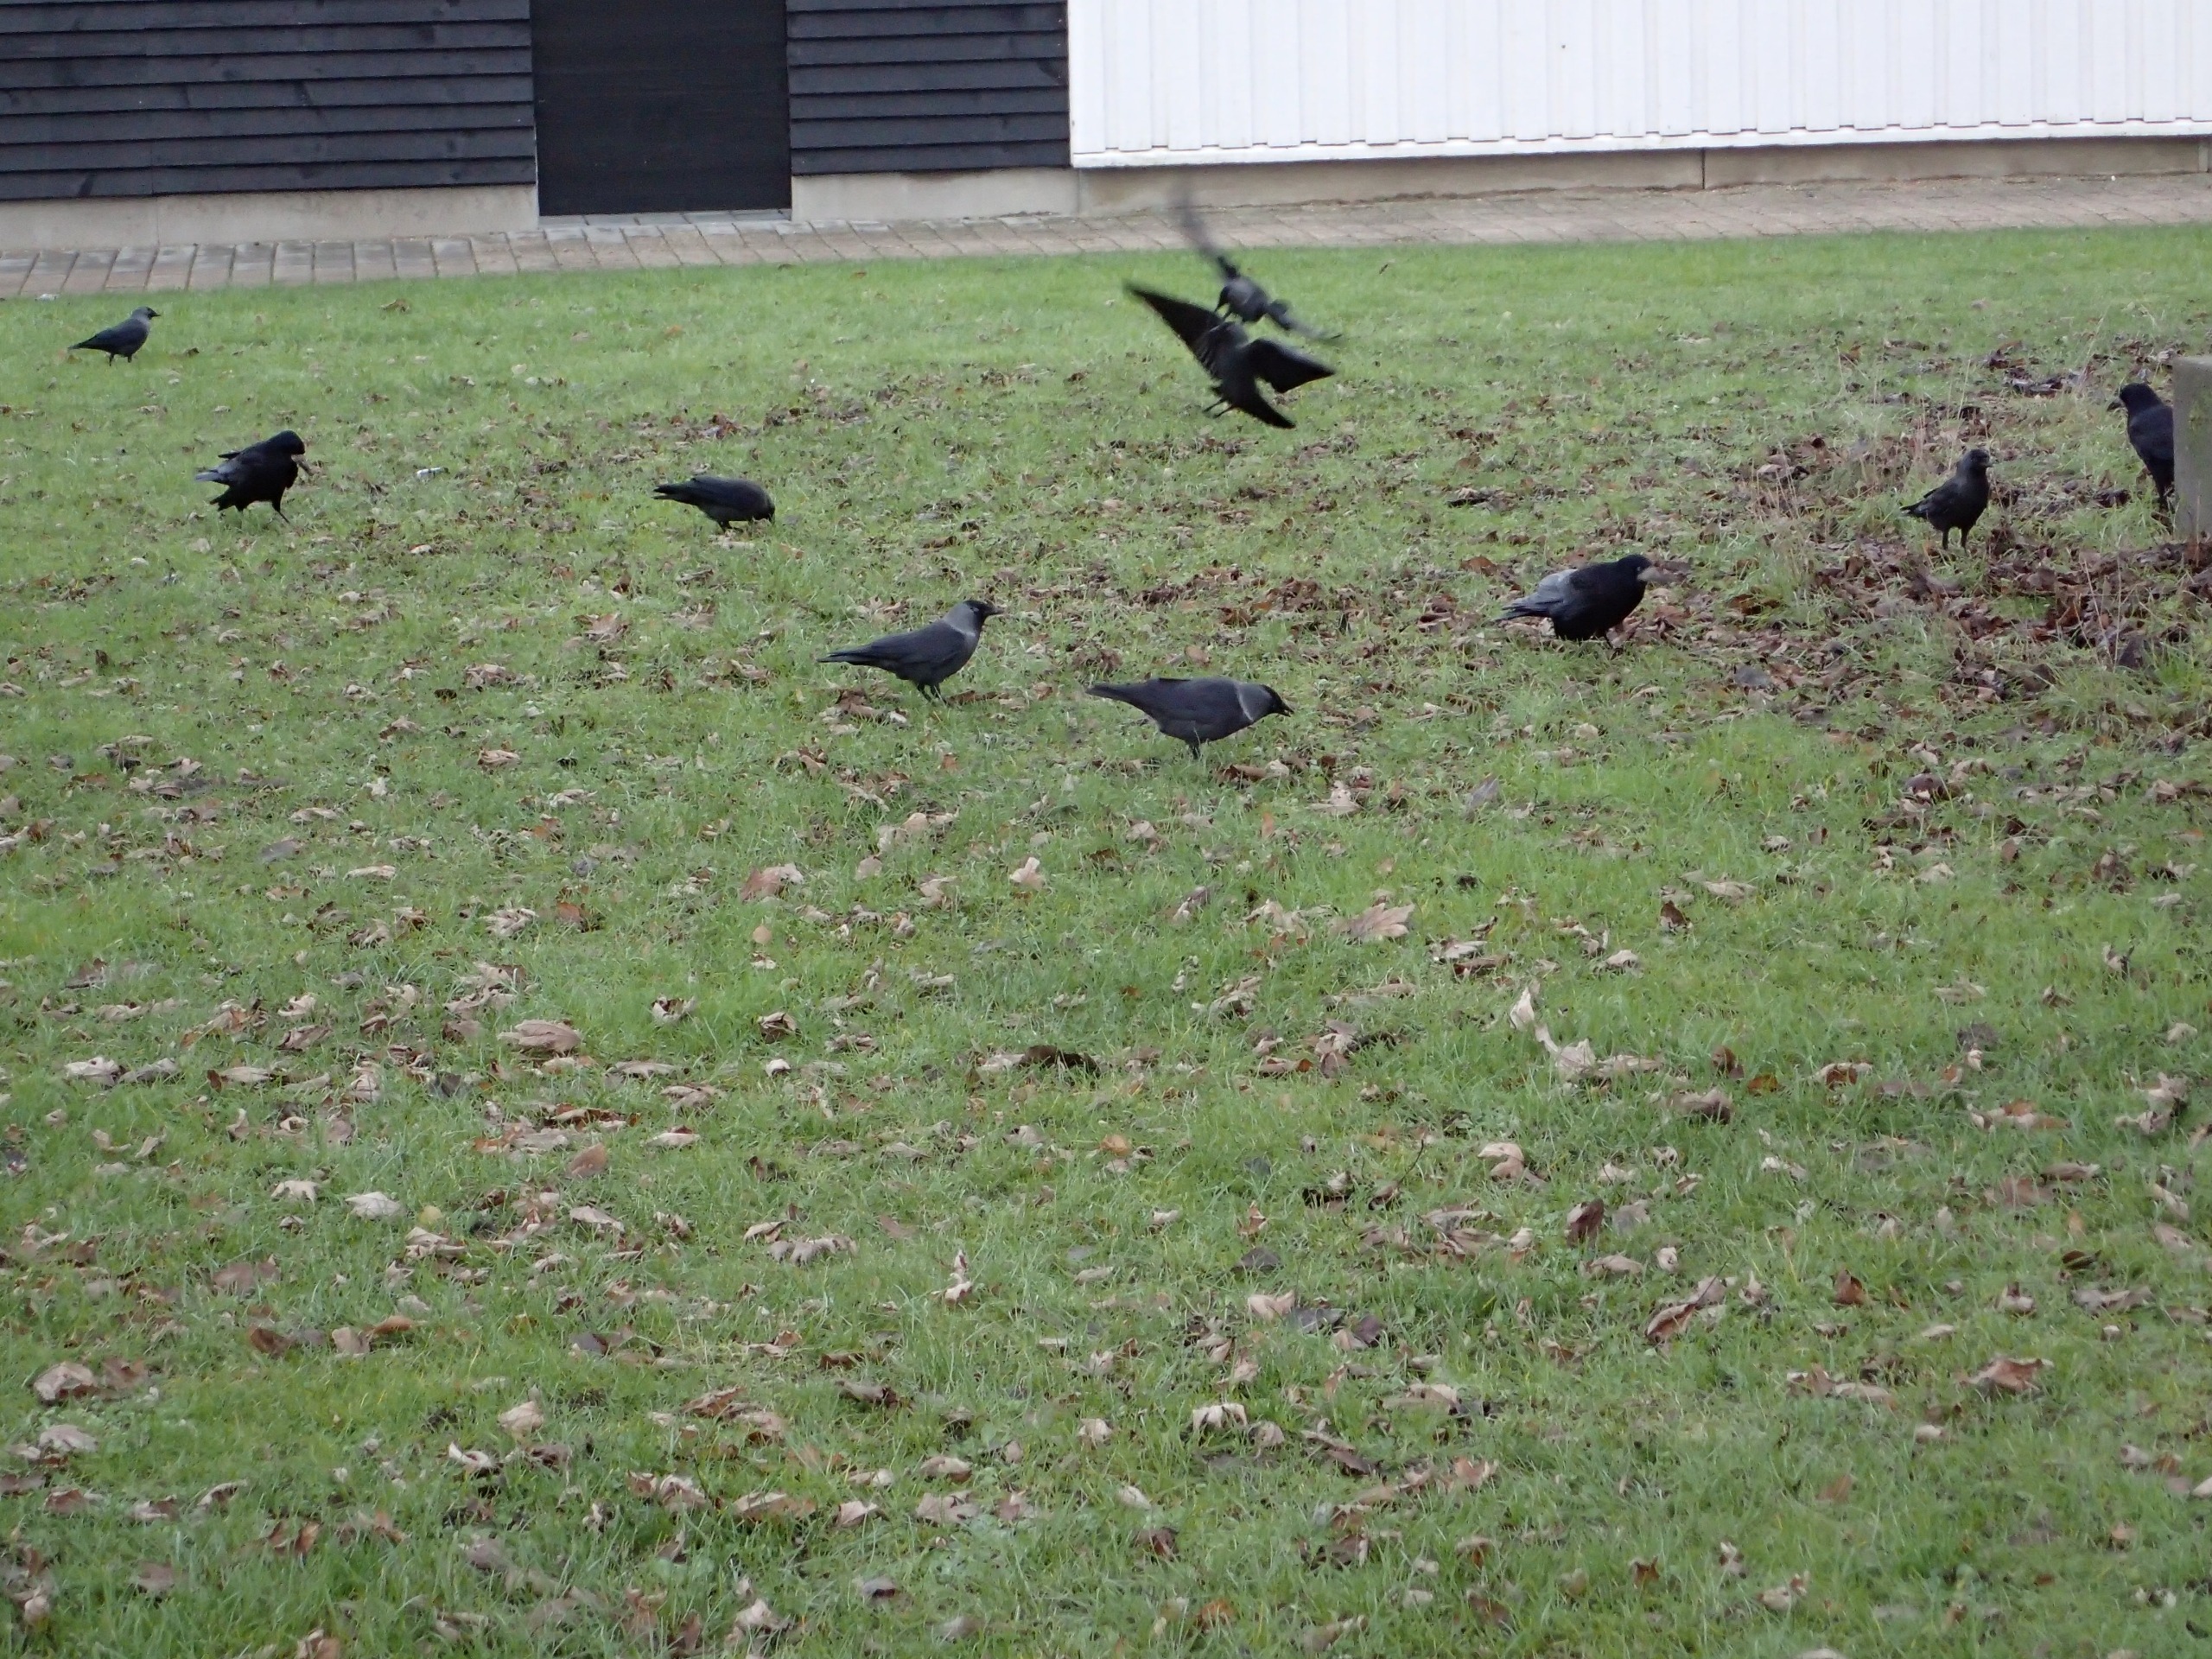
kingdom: Animalia
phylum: Chordata
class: Aves
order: Passeriformes
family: Corvidae
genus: Coloeus
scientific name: Coloeus monedula
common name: Allike
